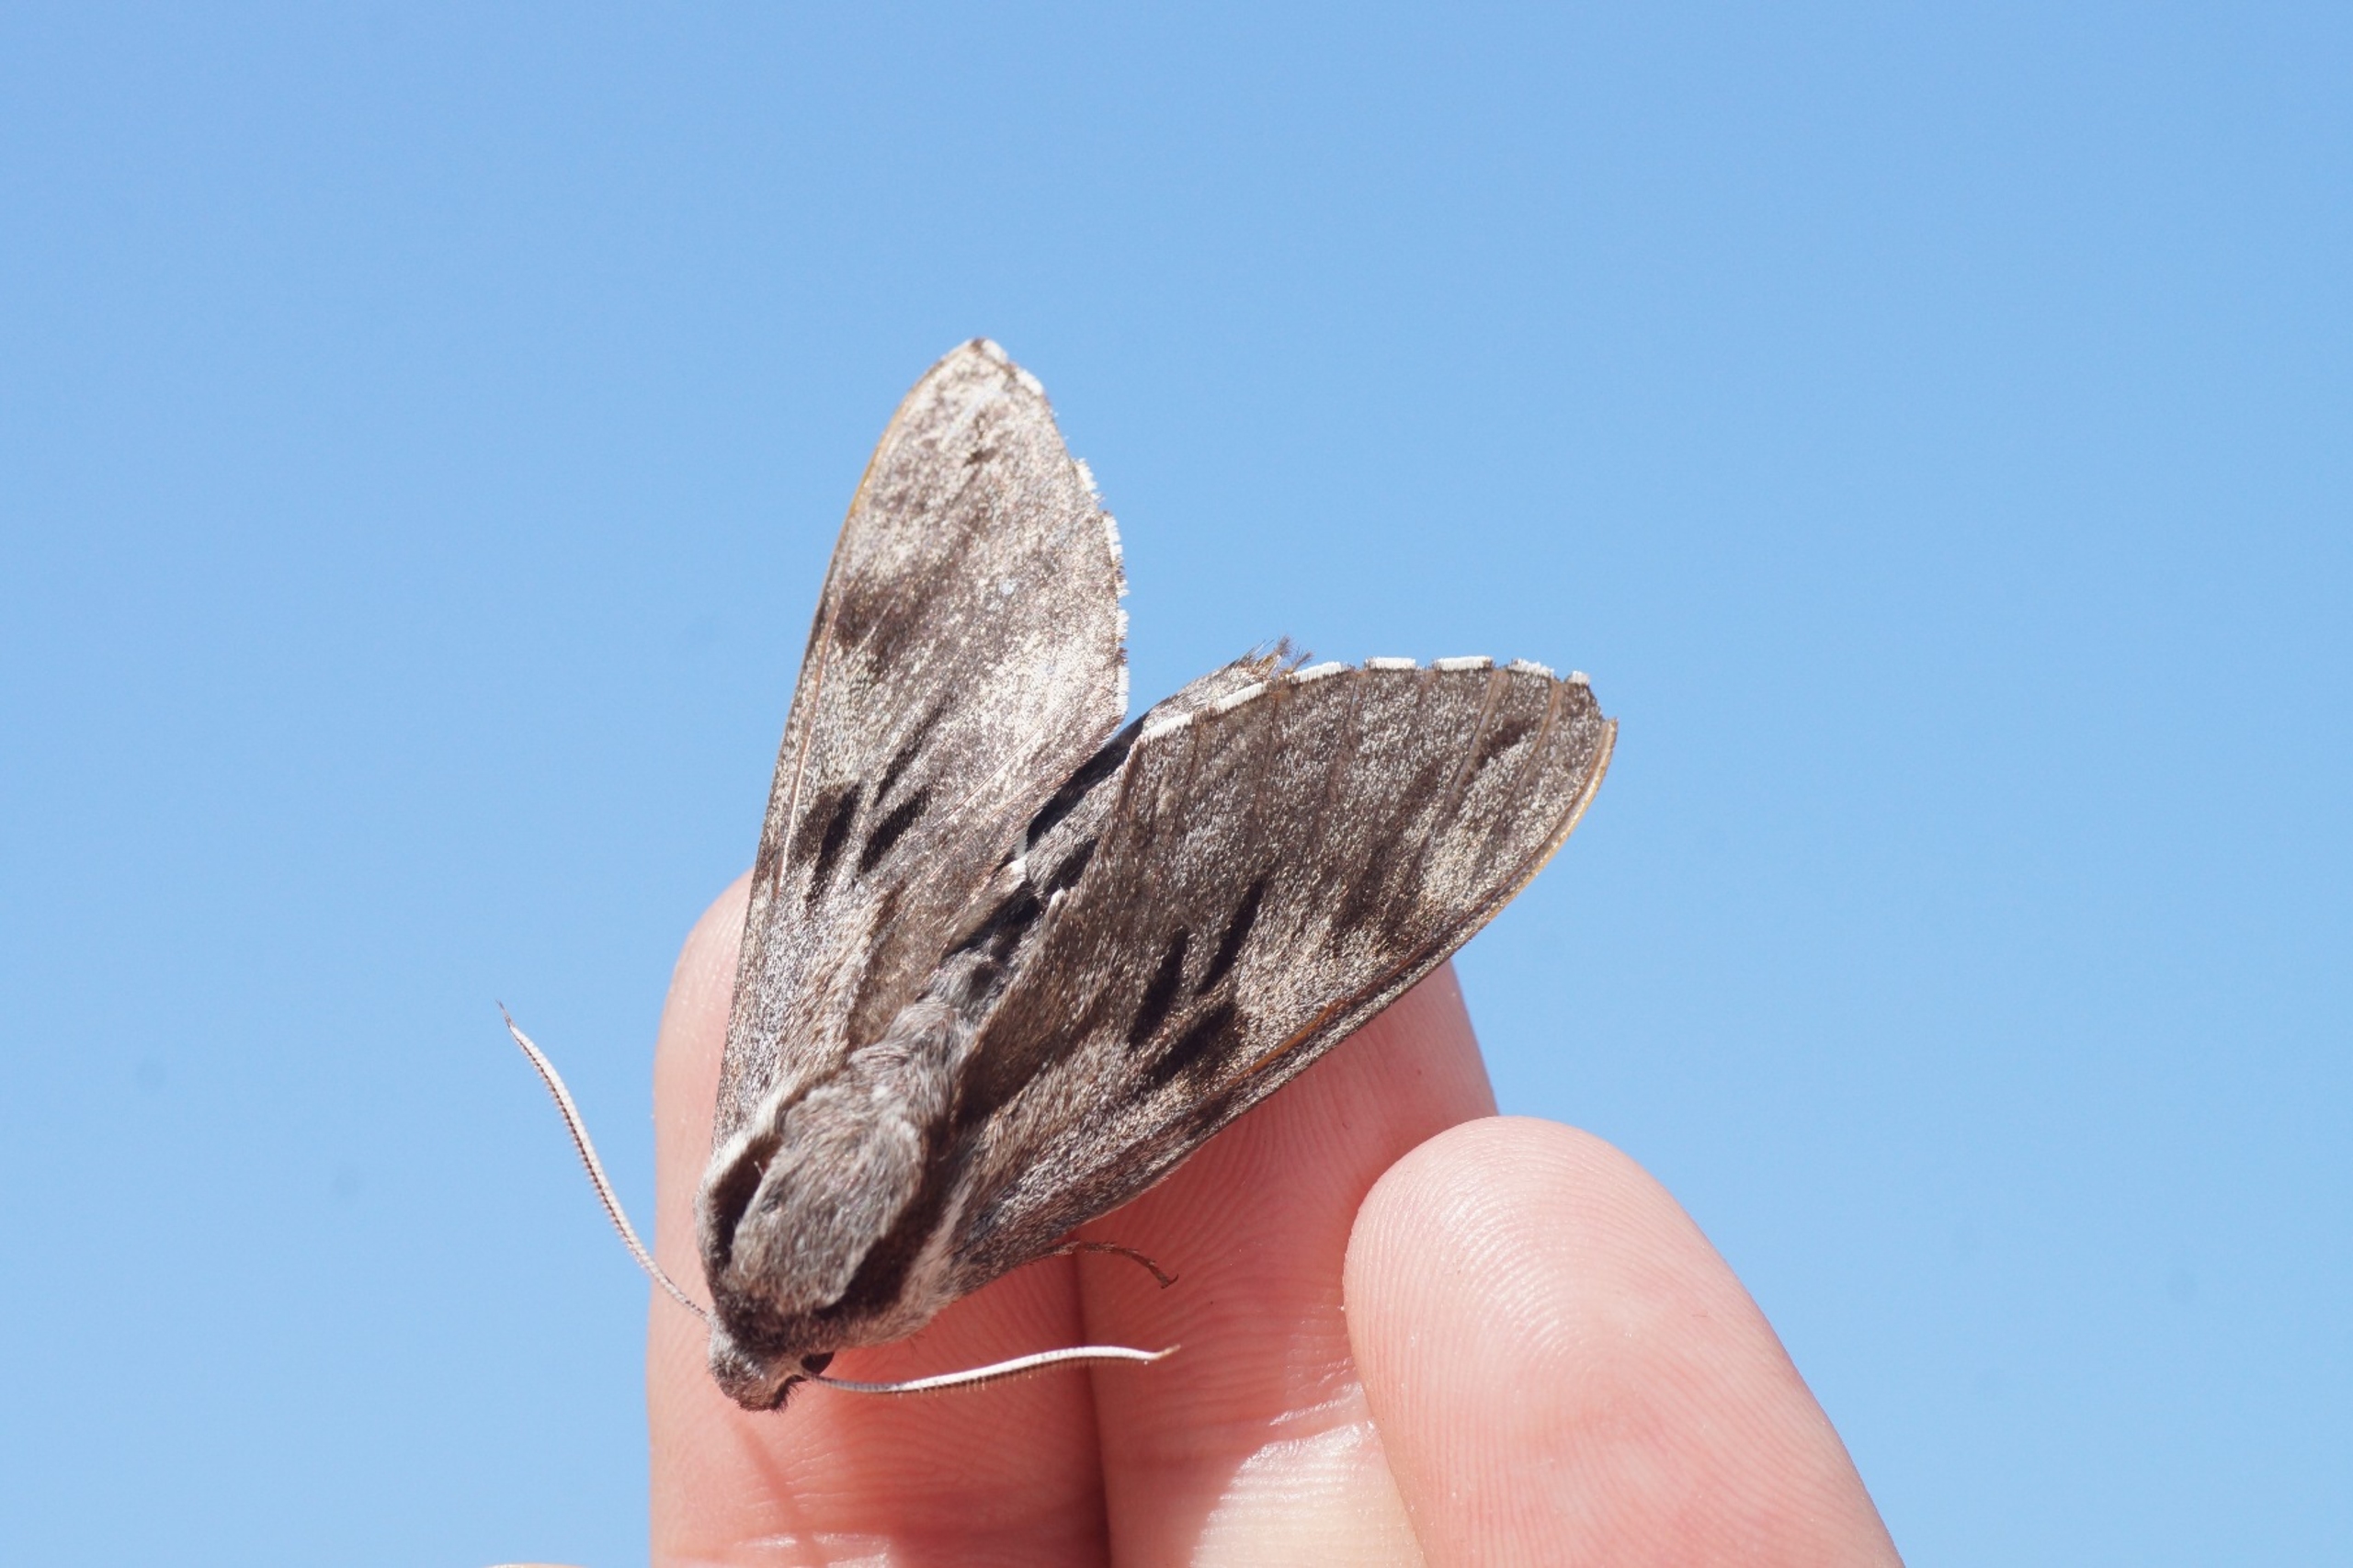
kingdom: Animalia
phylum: Arthropoda
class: Insecta
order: Lepidoptera
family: Sphingidae
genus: Sphinx
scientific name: Sphinx pinastri
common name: Fyrresværmer
